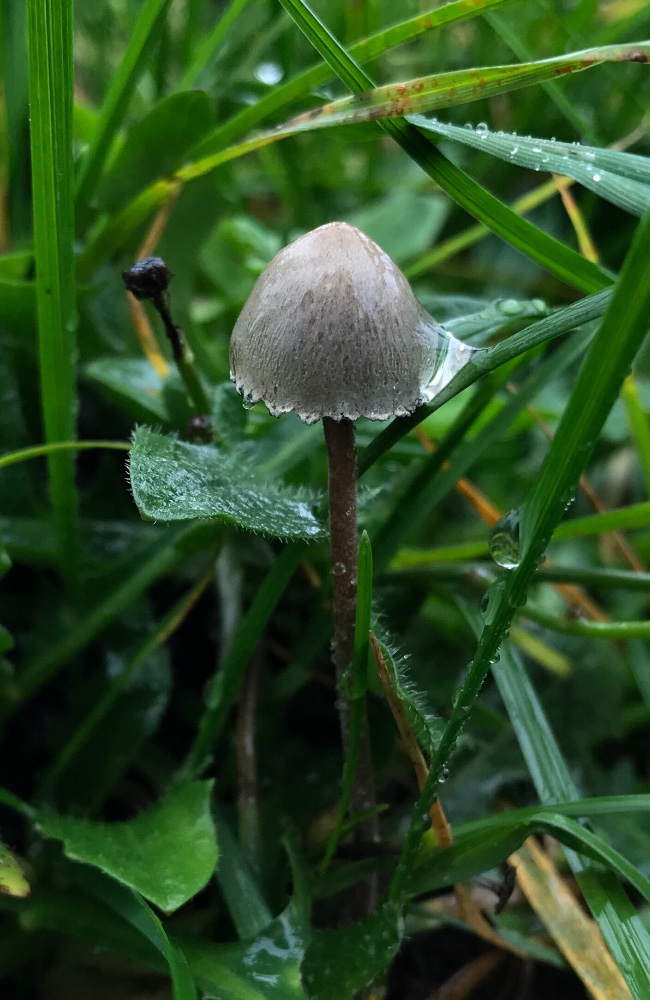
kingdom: Fungi
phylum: Basidiomycota
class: Agaricomycetes
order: Agaricales
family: Bolbitiaceae
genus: Panaeolus
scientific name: Panaeolus papilionaceus
